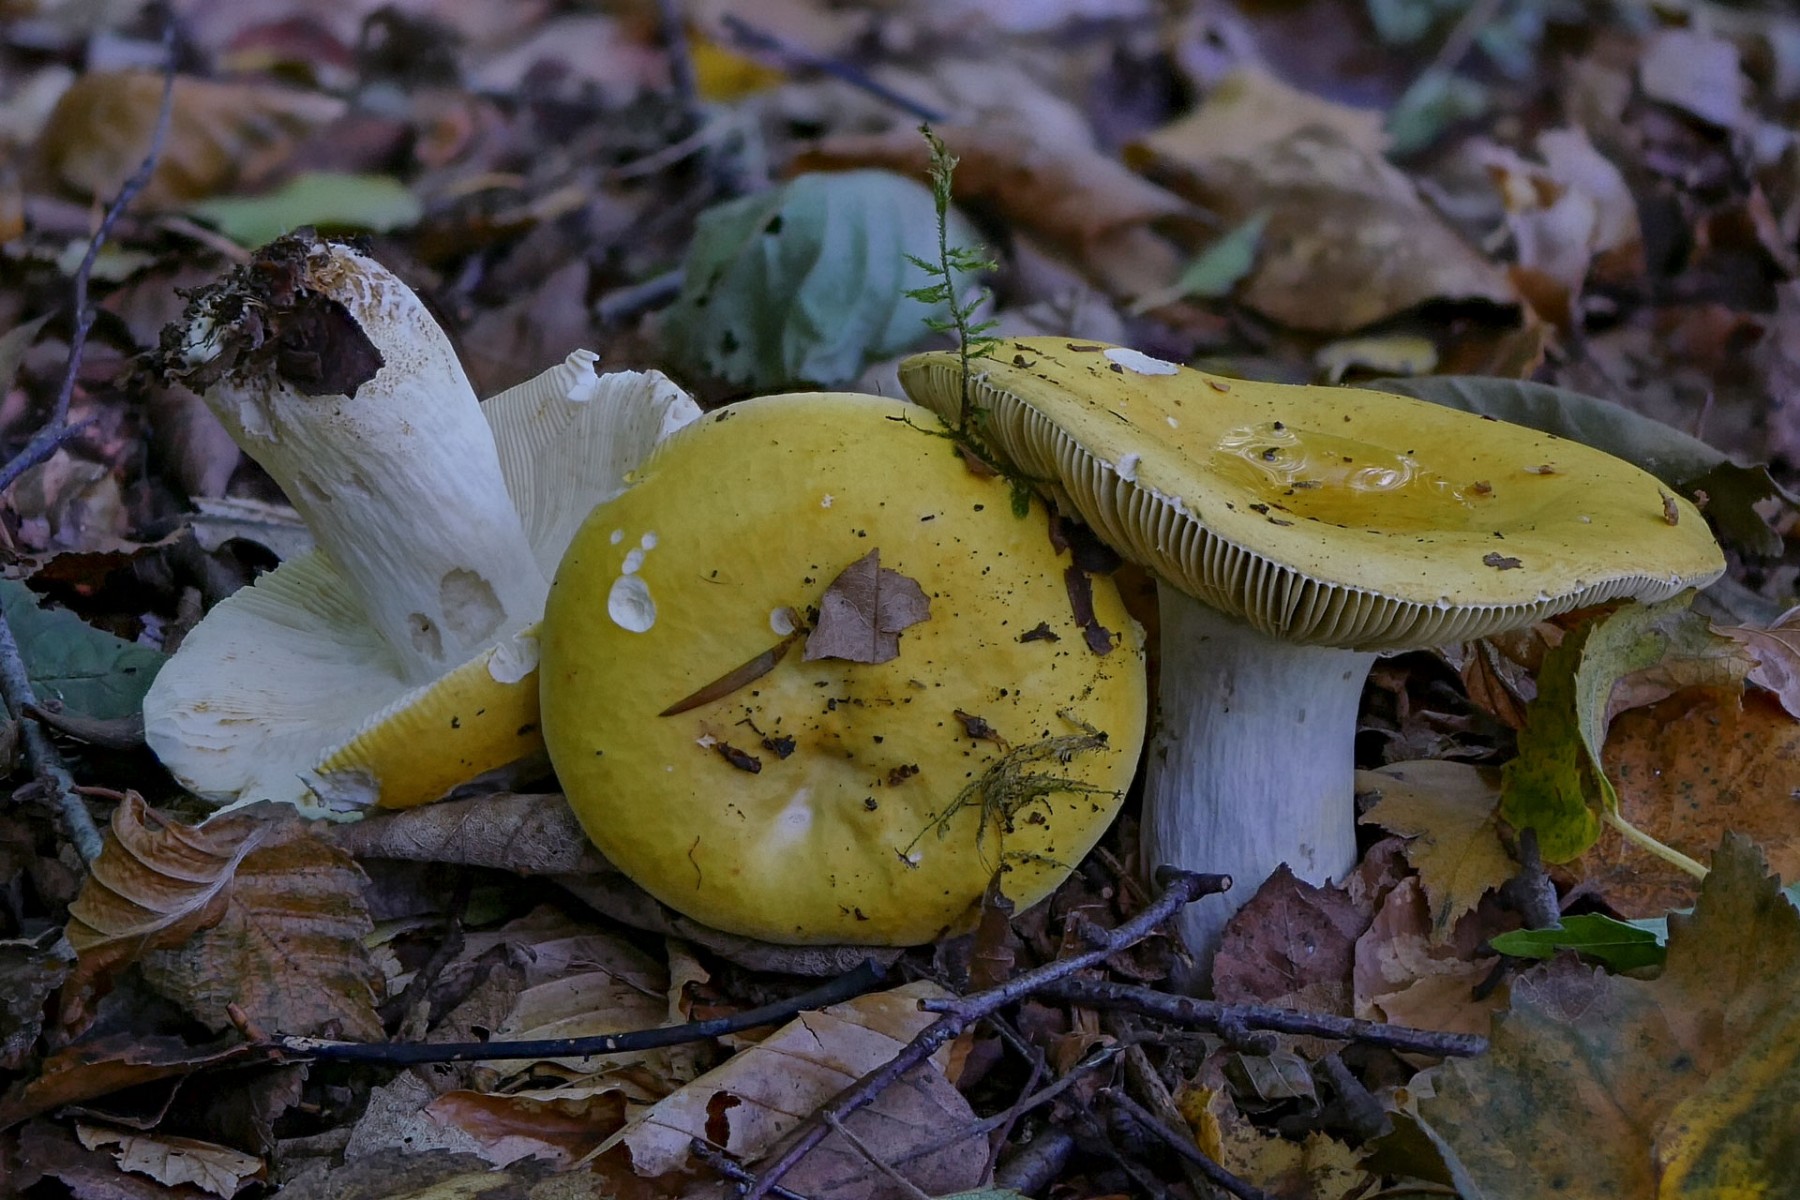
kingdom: Fungi
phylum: Basidiomycota
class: Agaricomycetes
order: Russulales
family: Russulaceae
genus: Russula
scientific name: Russula claroflava
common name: birke-skørhat
